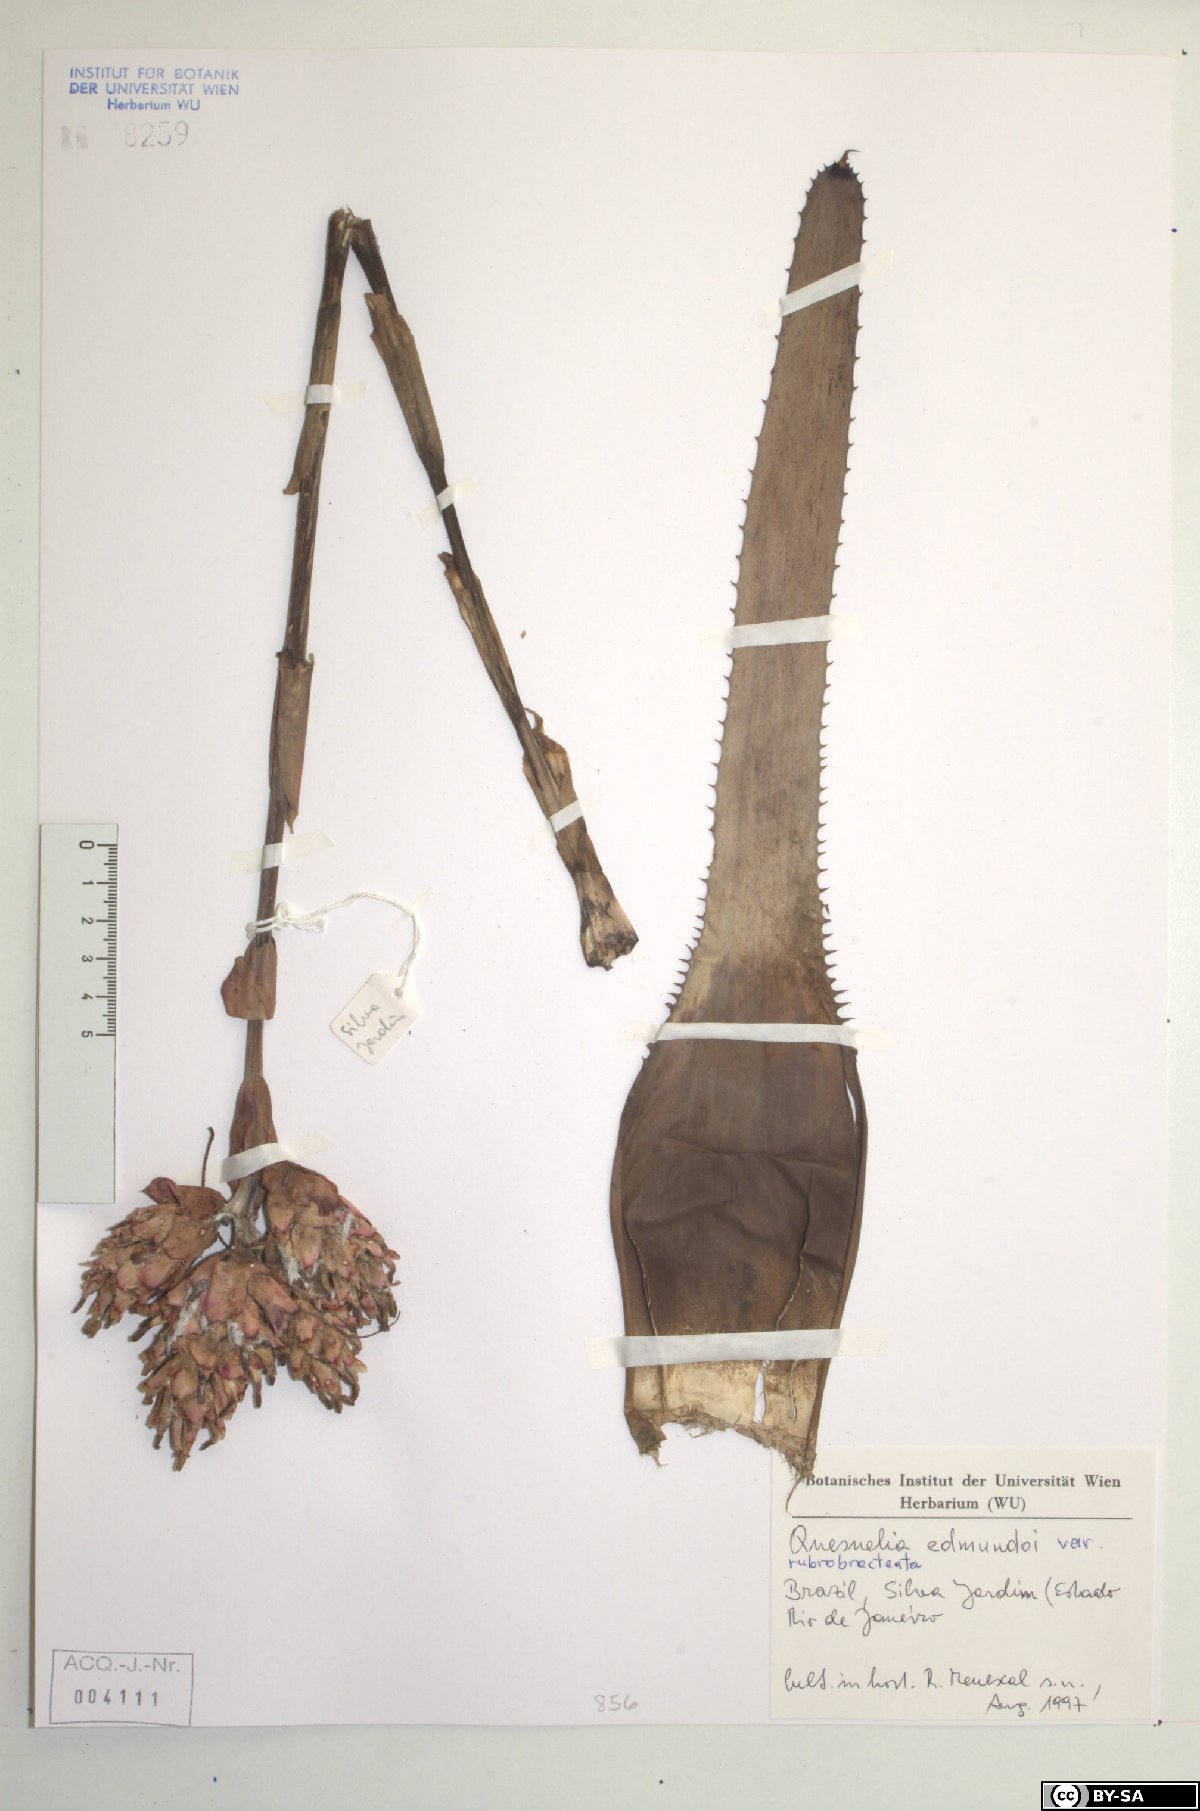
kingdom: Plantae
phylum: Tracheophyta
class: Liliopsida
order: Poales
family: Bromeliaceae
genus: Quesnelia
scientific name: Quesnelia edmundoi
